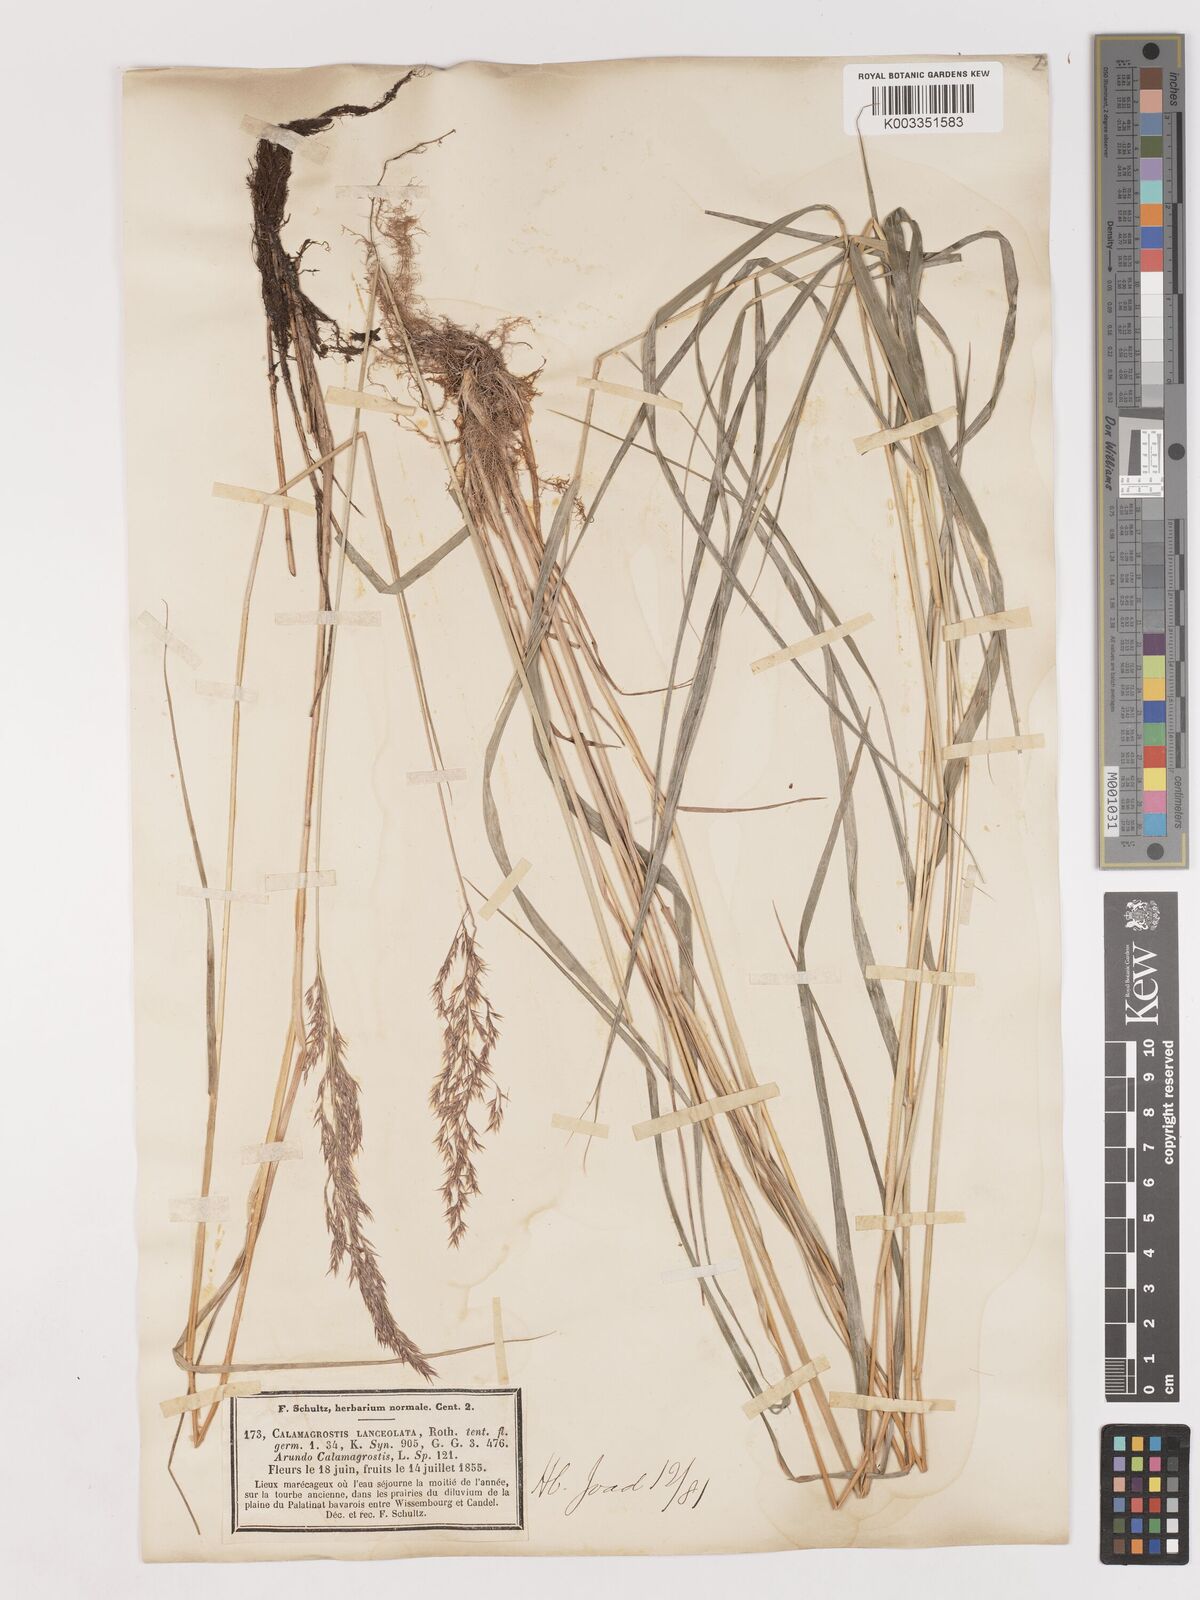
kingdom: Plantae
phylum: Tracheophyta
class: Liliopsida
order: Poales
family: Poaceae
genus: Calamagrostis
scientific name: Calamagrostis canescens
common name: Purple small-reed
